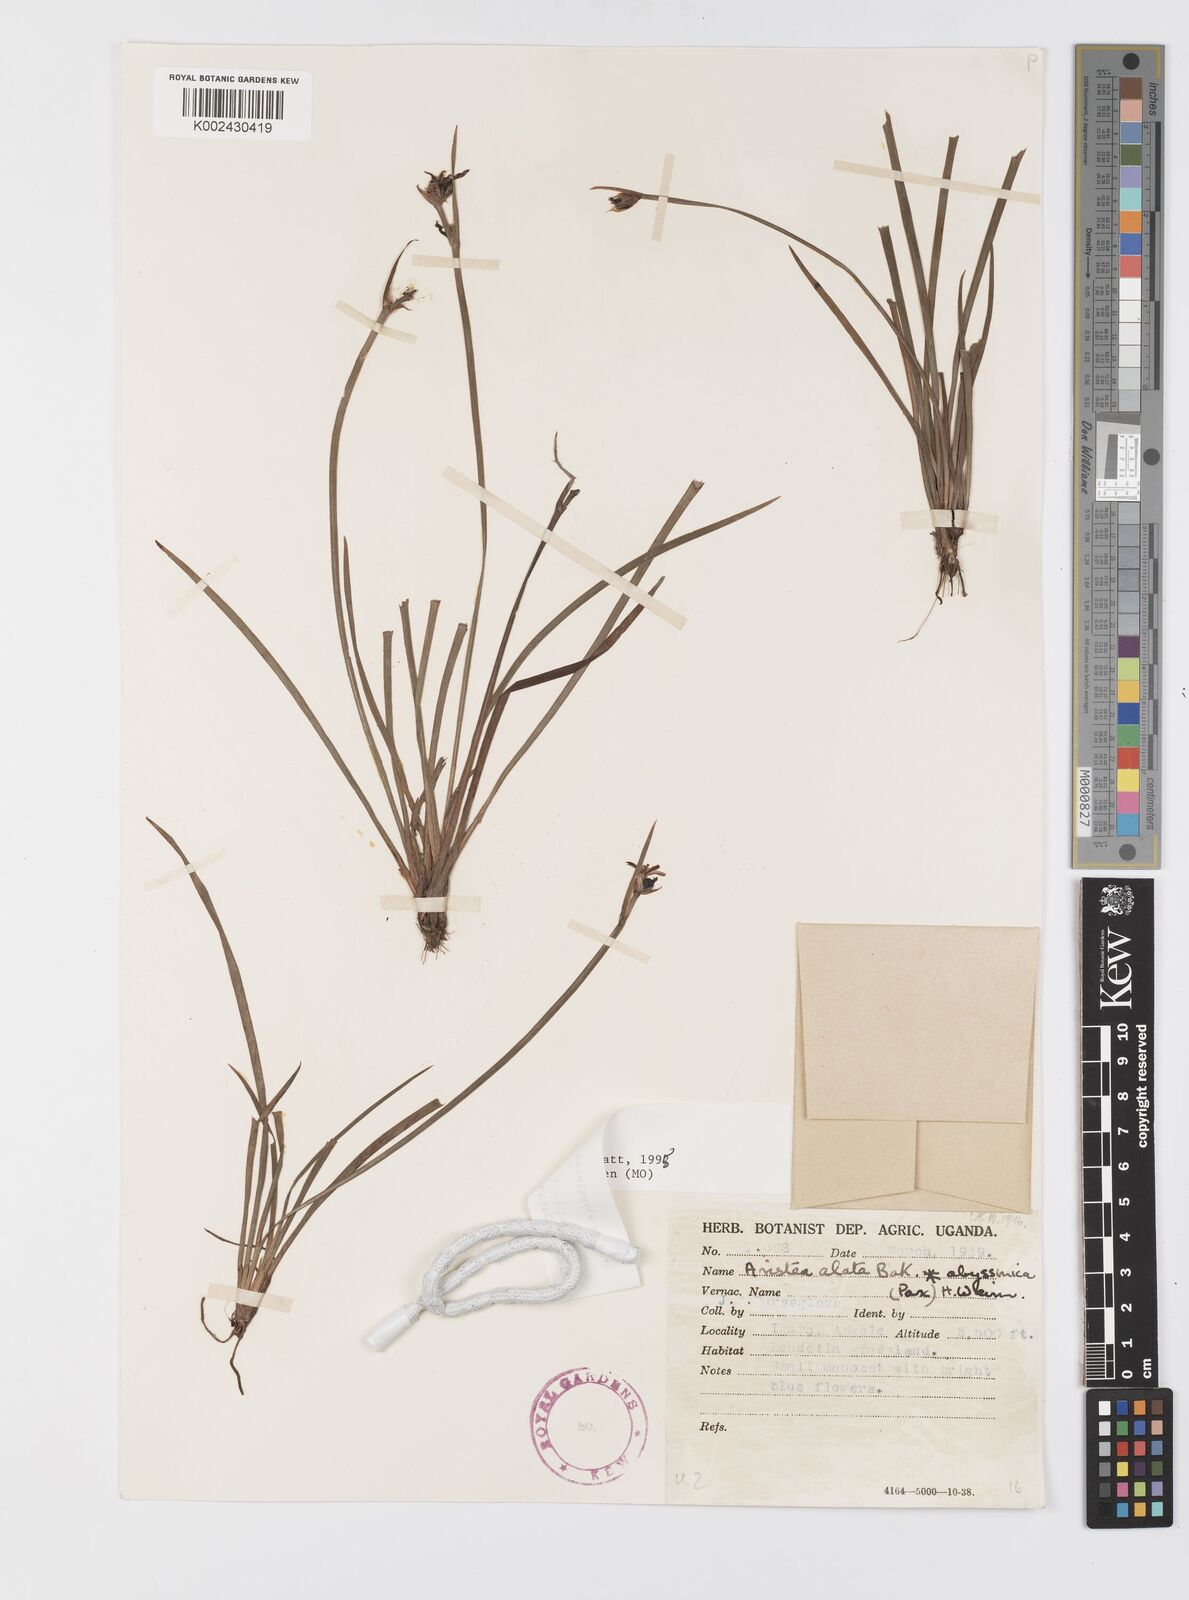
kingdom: Plantae
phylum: Tracheophyta
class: Liliopsida
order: Asparagales
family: Iridaceae
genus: Aristea
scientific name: Aristea abyssinica
